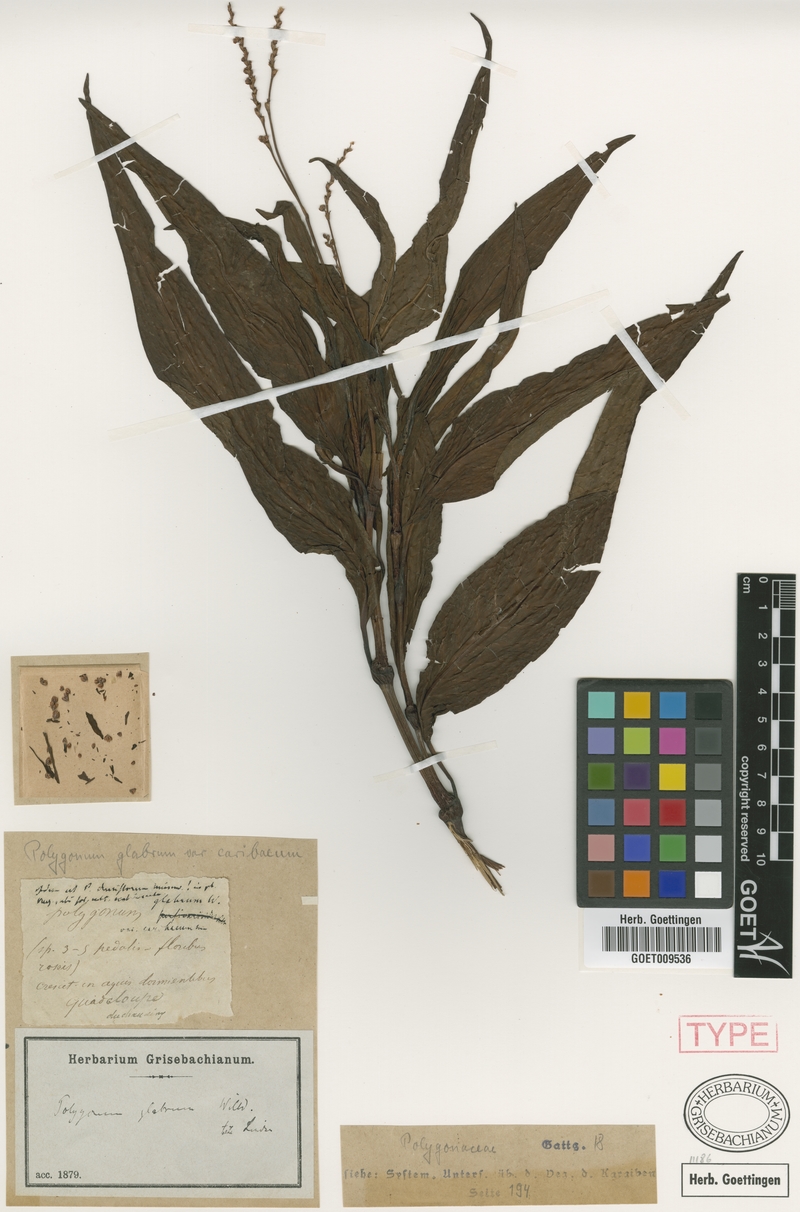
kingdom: Plantae
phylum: Tracheophyta
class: Magnoliopsida
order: Caryophyllales
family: Polygonaceae
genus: Persicaria
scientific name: Persicaria glabra
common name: Denseflower knotweed
